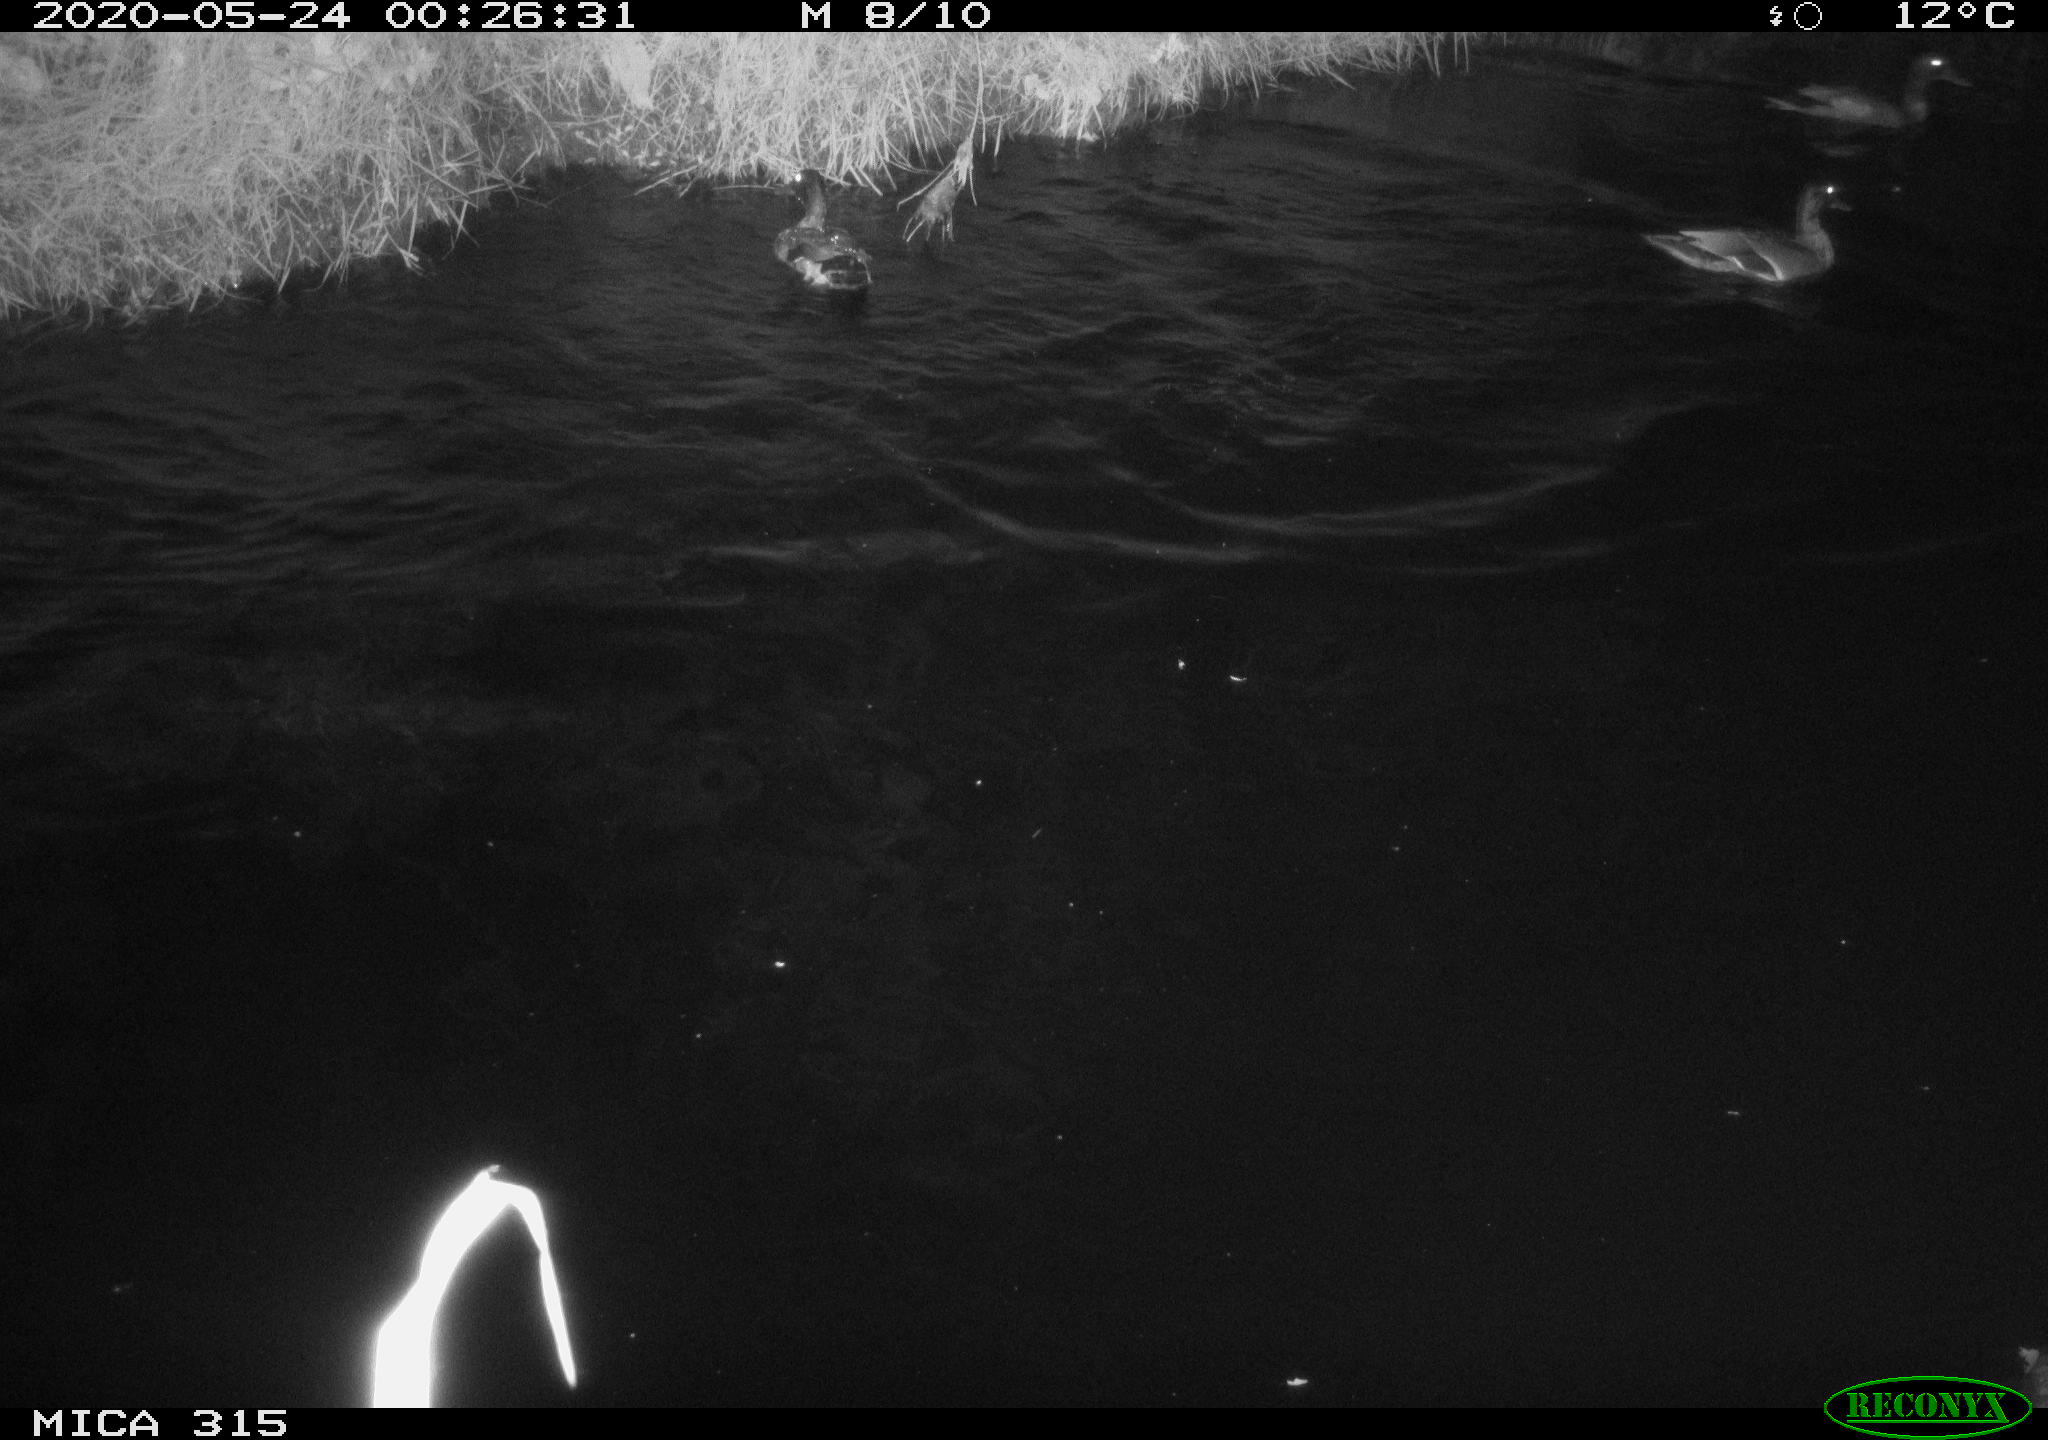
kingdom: Animalia
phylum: Chordata
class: Aves
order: Anseriformes
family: Anatidae
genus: Anas
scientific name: Anas platyrhynchos
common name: Mallard
